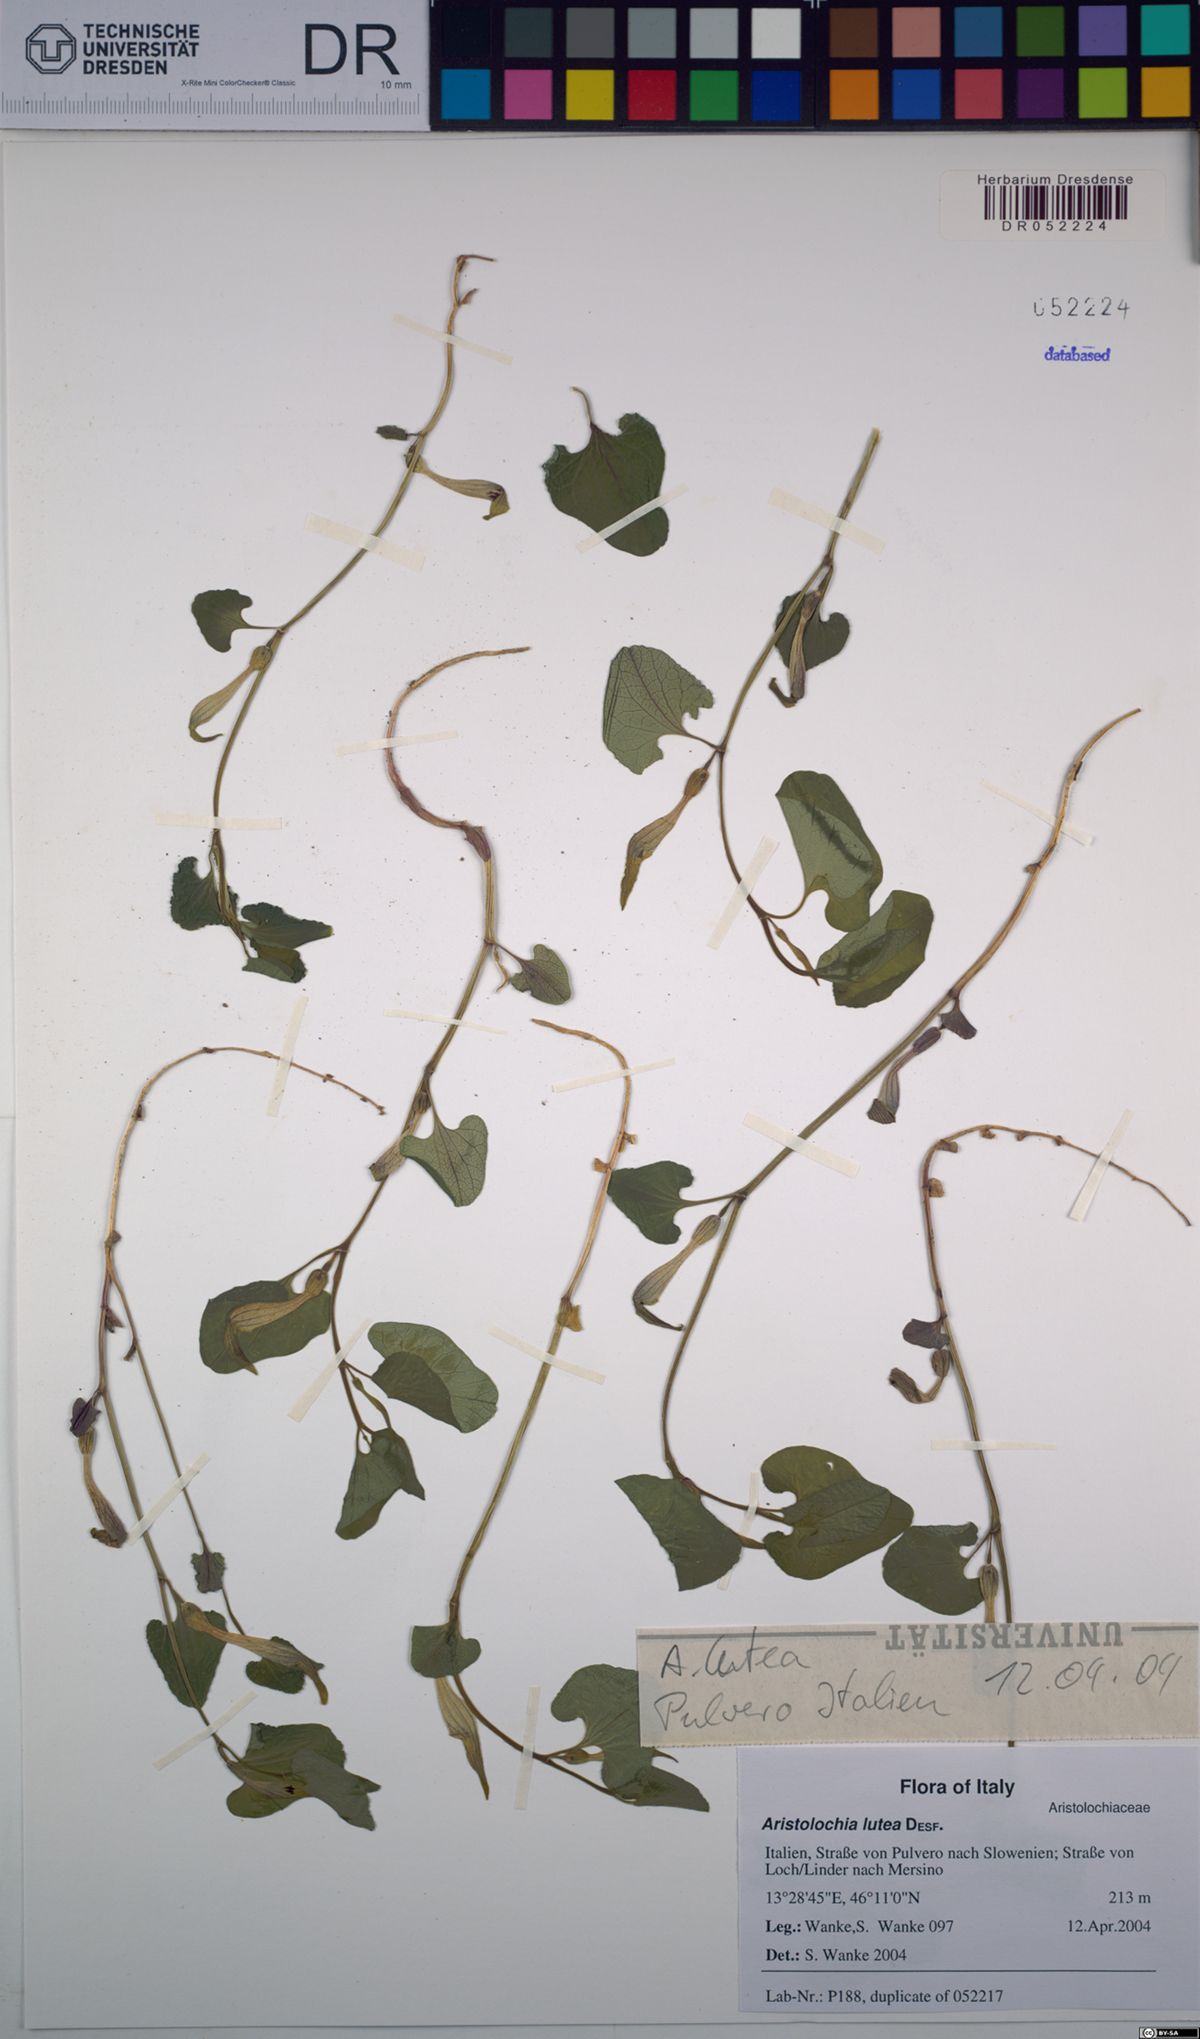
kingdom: Plantae
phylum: Tracheophyta
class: Magnoliopsida
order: Piperales
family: Aristolochiaceae
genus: Aristolochia
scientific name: Aristolochia lutea
